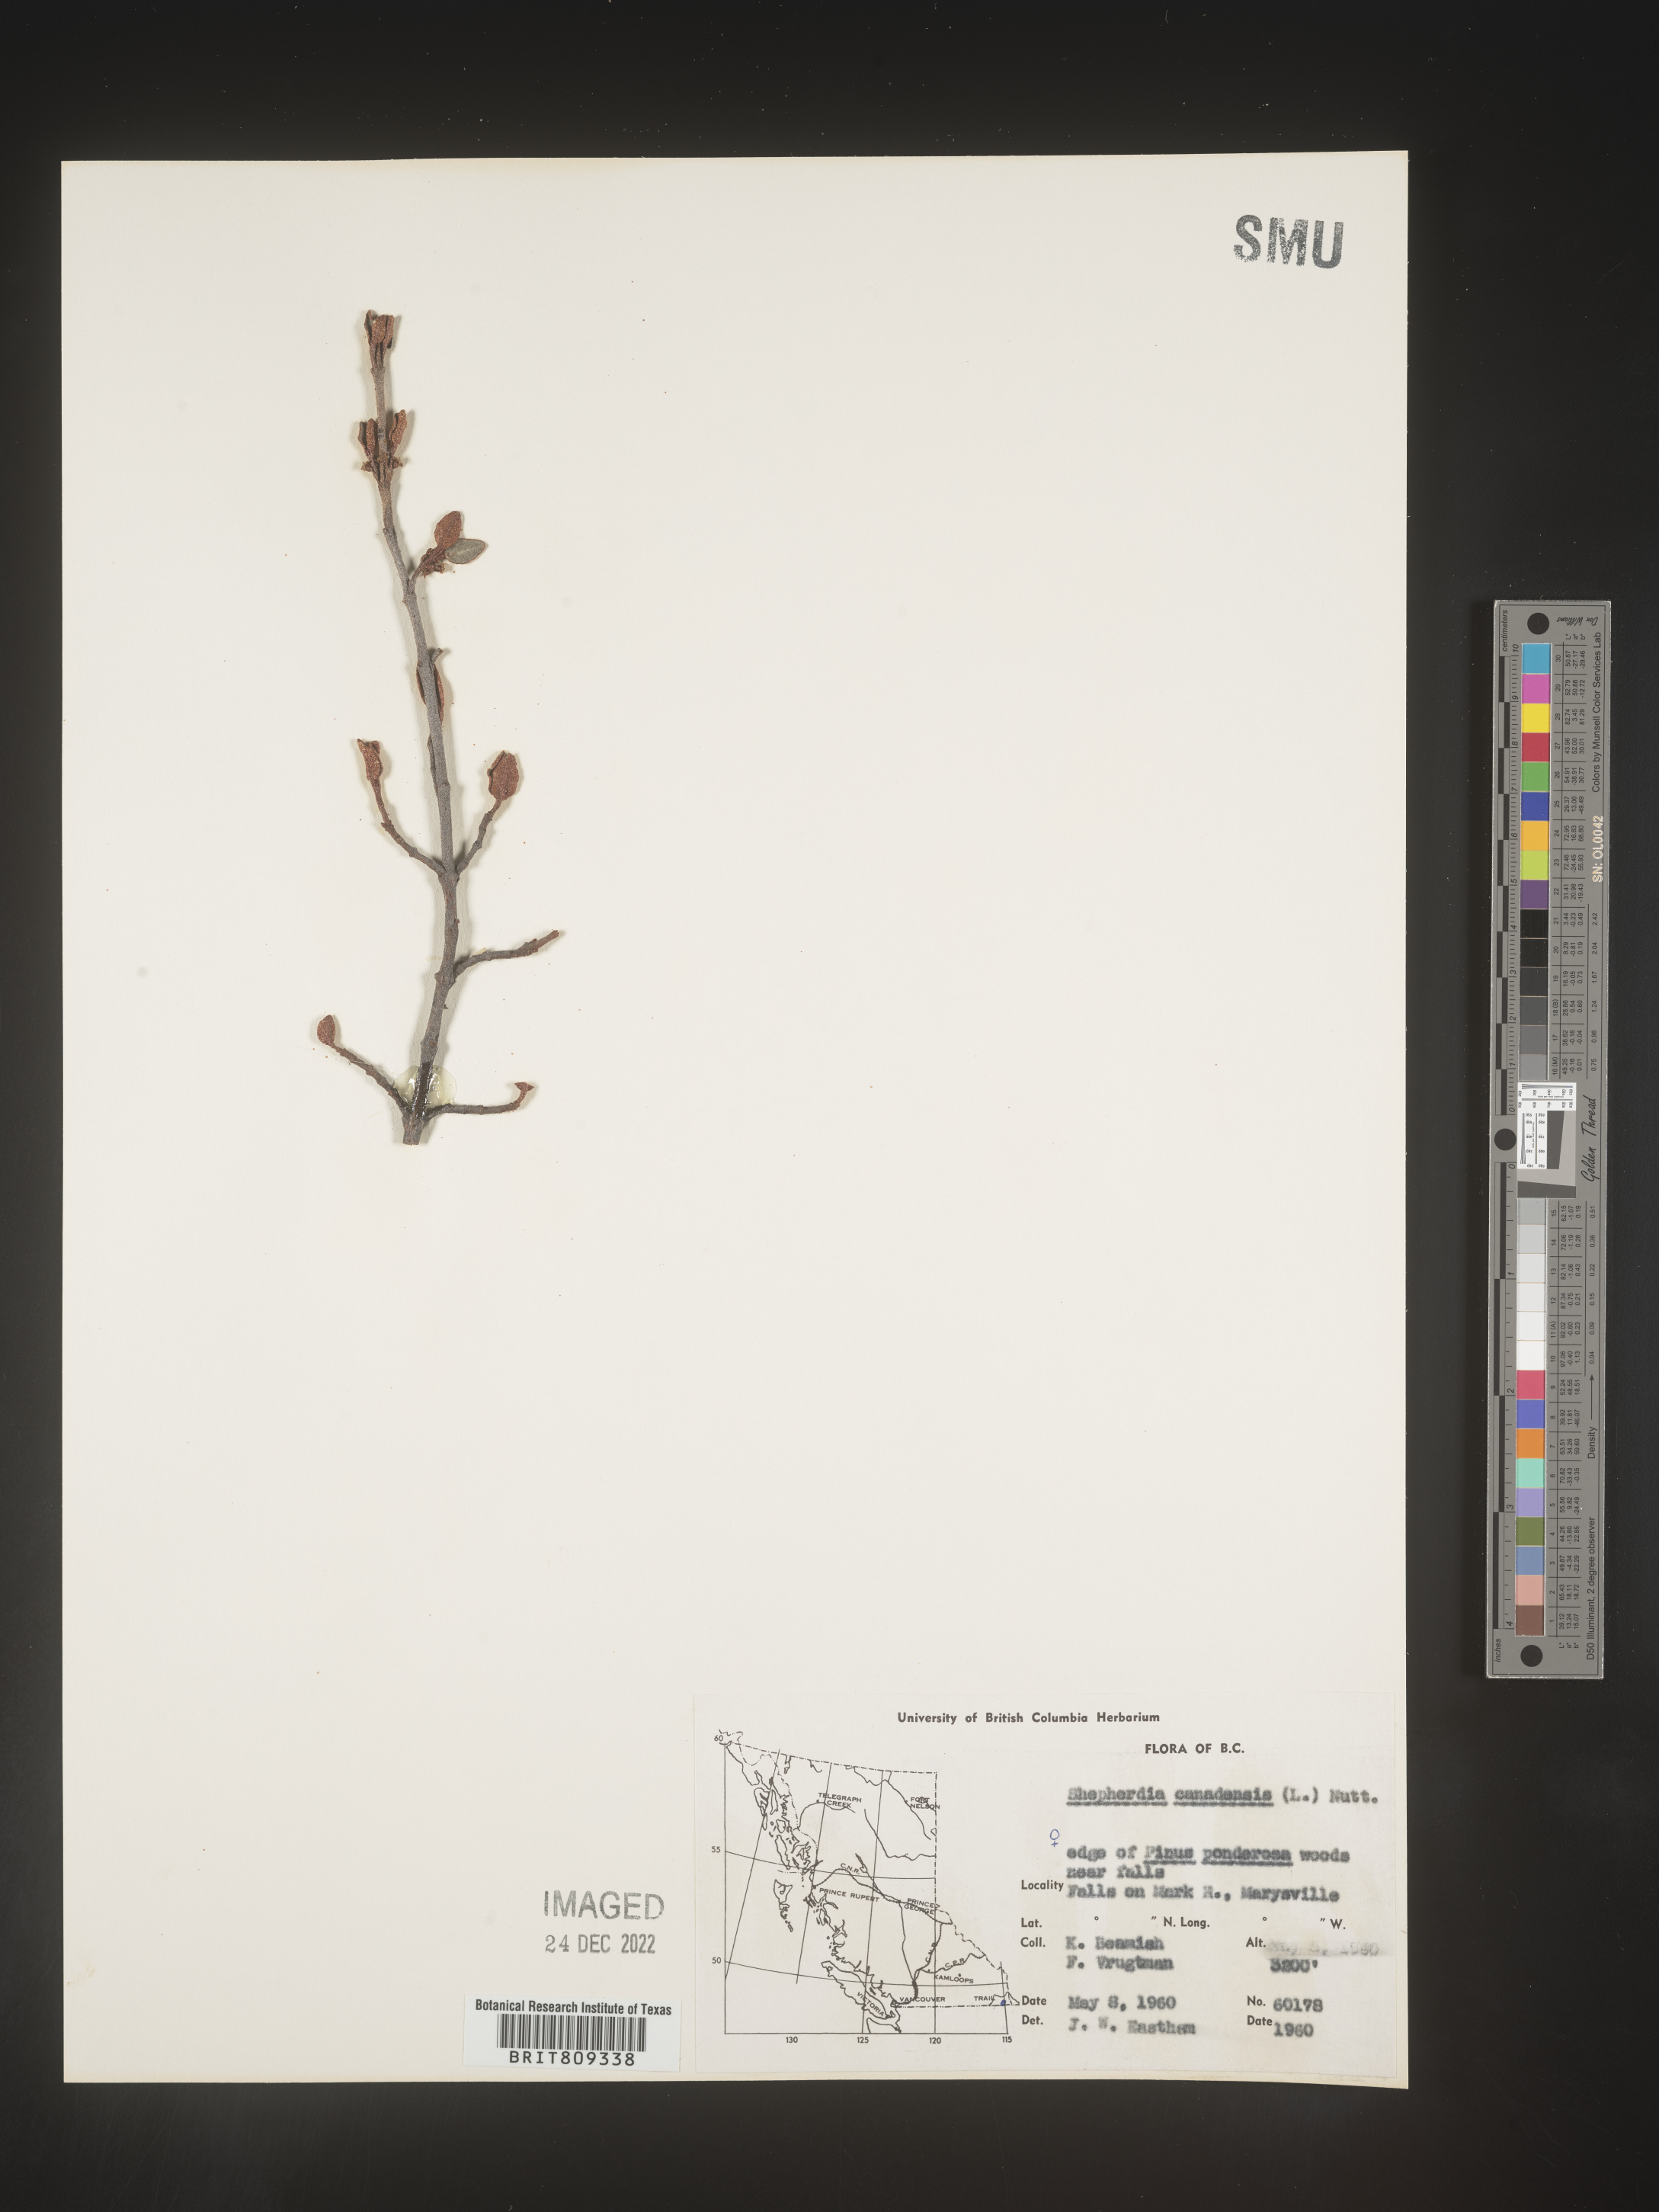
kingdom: Plantae
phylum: Tracheophyta
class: Magnoliopsida
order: Rosales
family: Elaeagnaceae
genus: Shepherdia
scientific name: Shepherdia canadensis
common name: Soapberry
